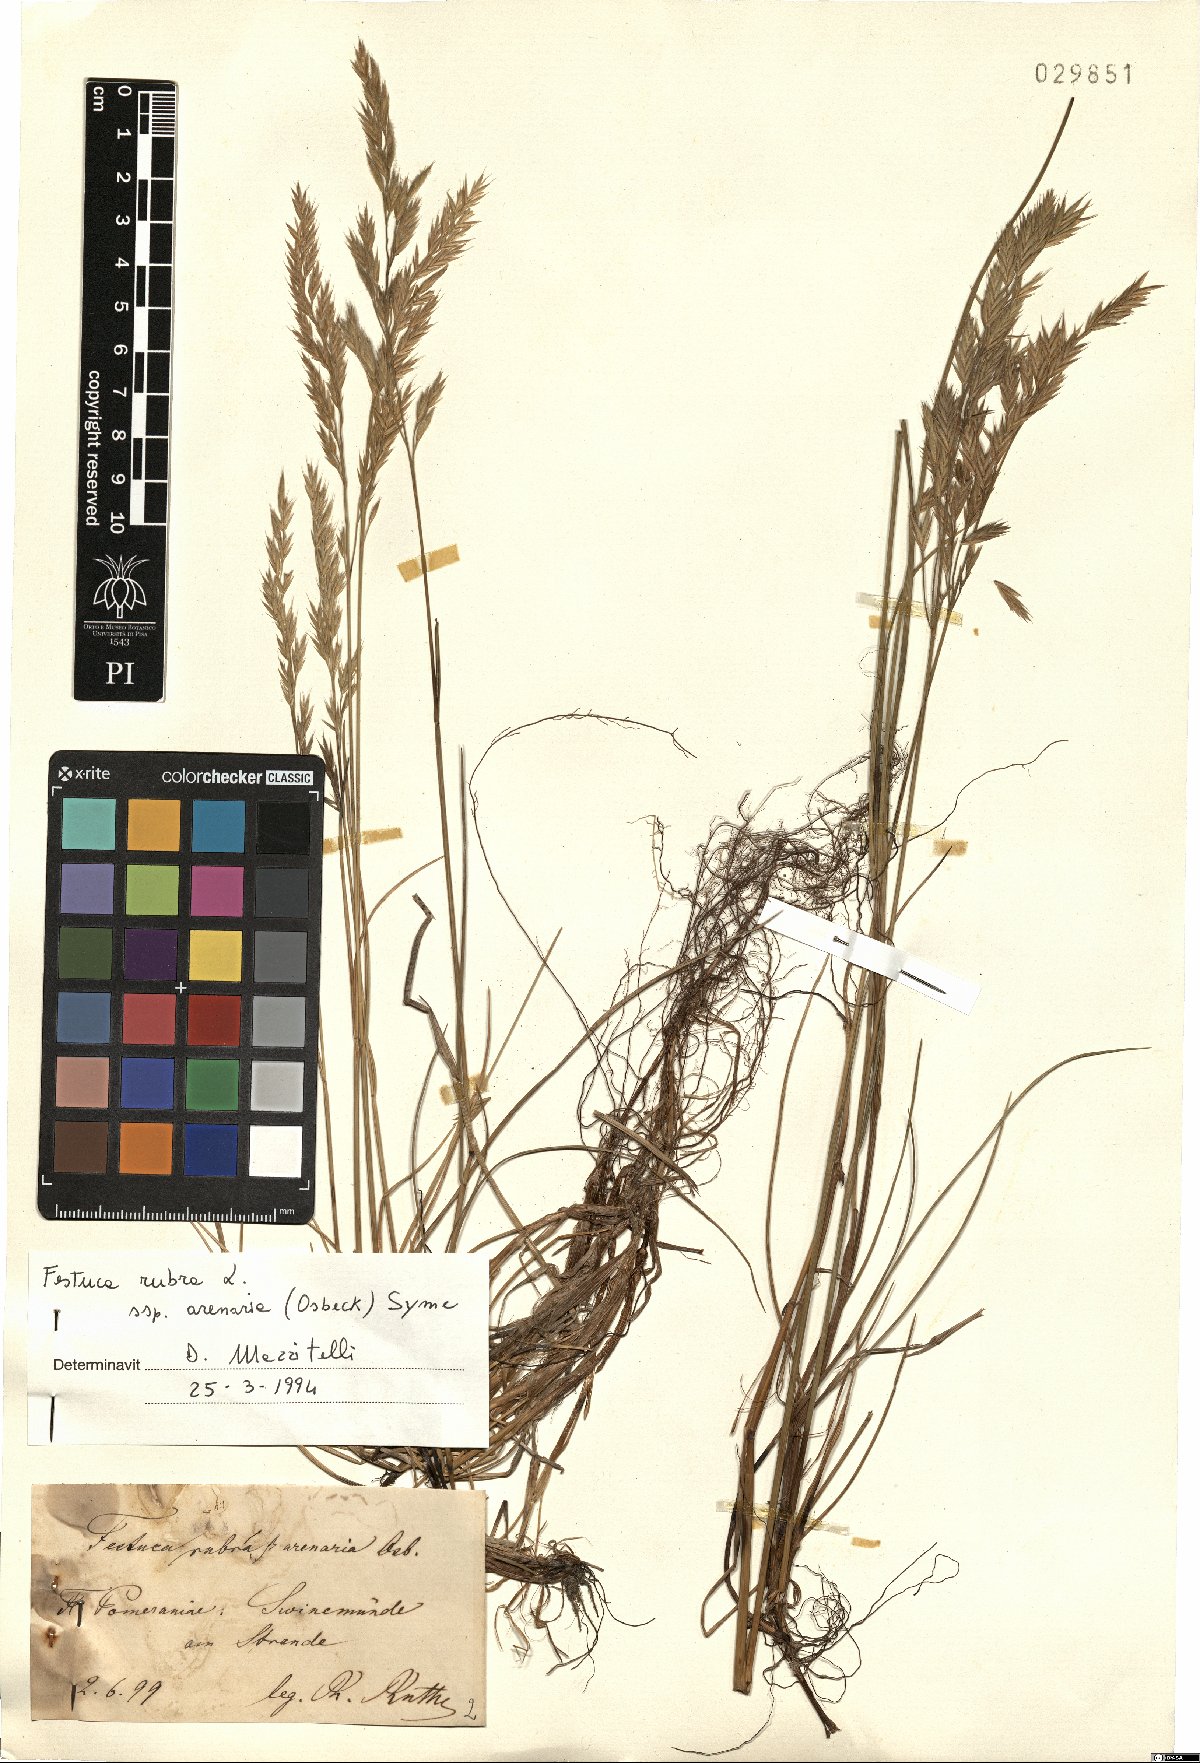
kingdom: Plantae
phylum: Tracheophyta
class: Liliopsida
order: Poales
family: Poaceae
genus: Festuca
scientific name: Festuca rubra
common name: Red fescue
